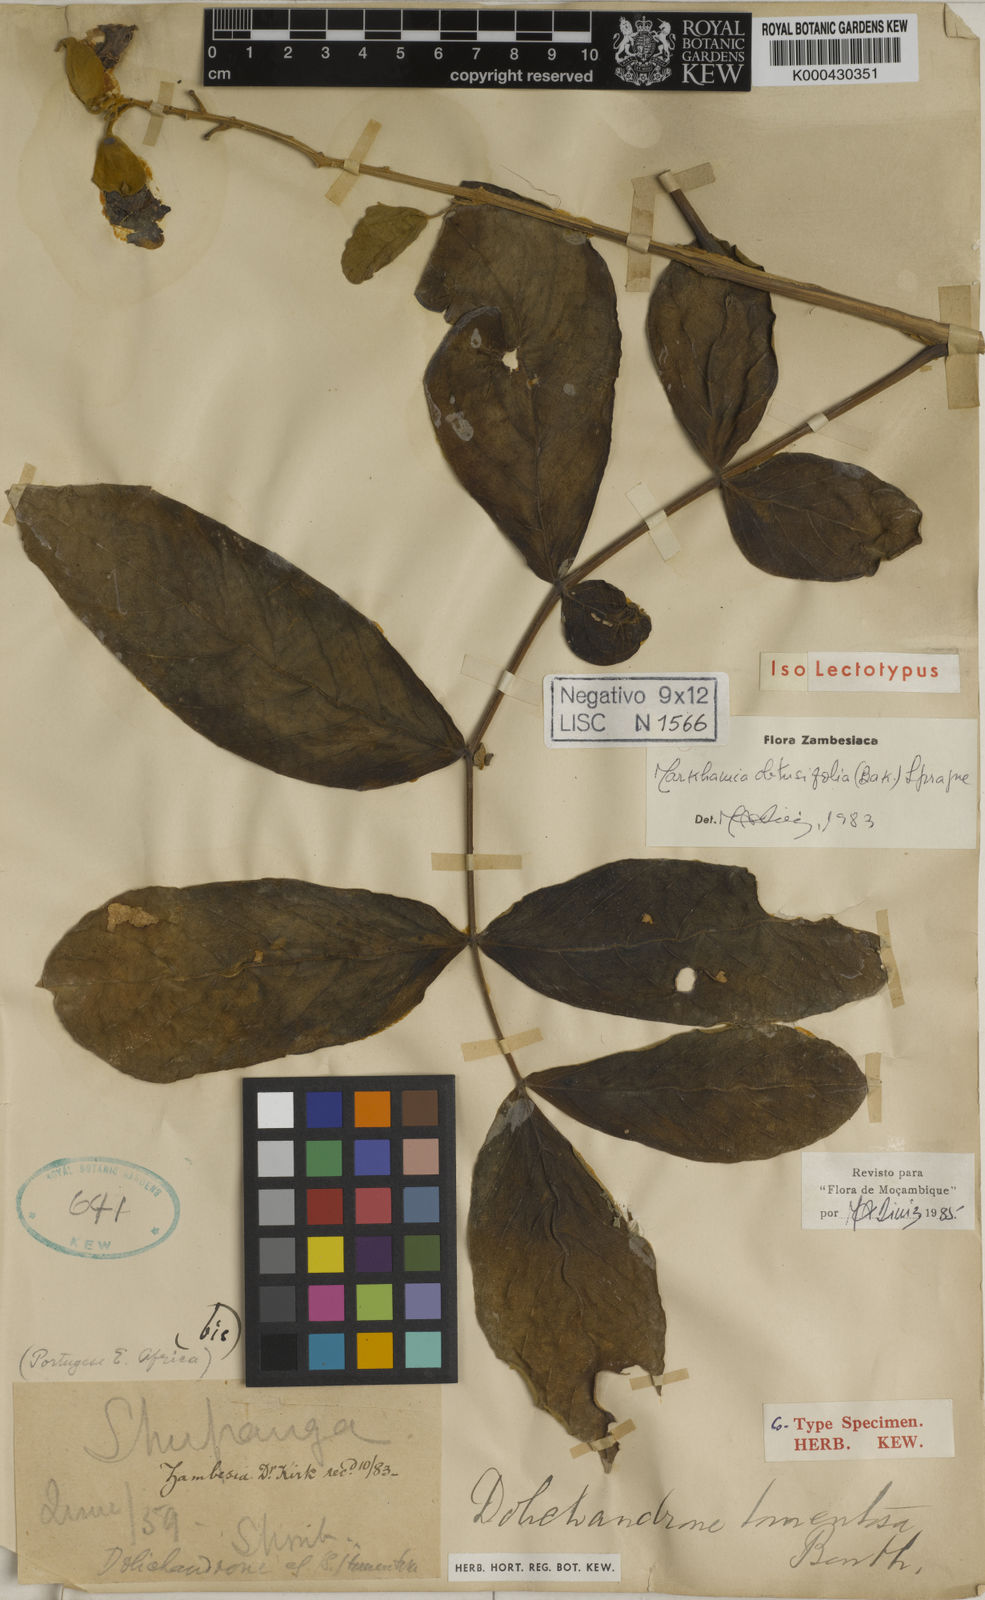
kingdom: Plantae
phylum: Tracheophyta
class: Magnoliopsida
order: Lamiales
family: Bignoniaceae
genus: Markhamia
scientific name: Markhamia obtusifolia
